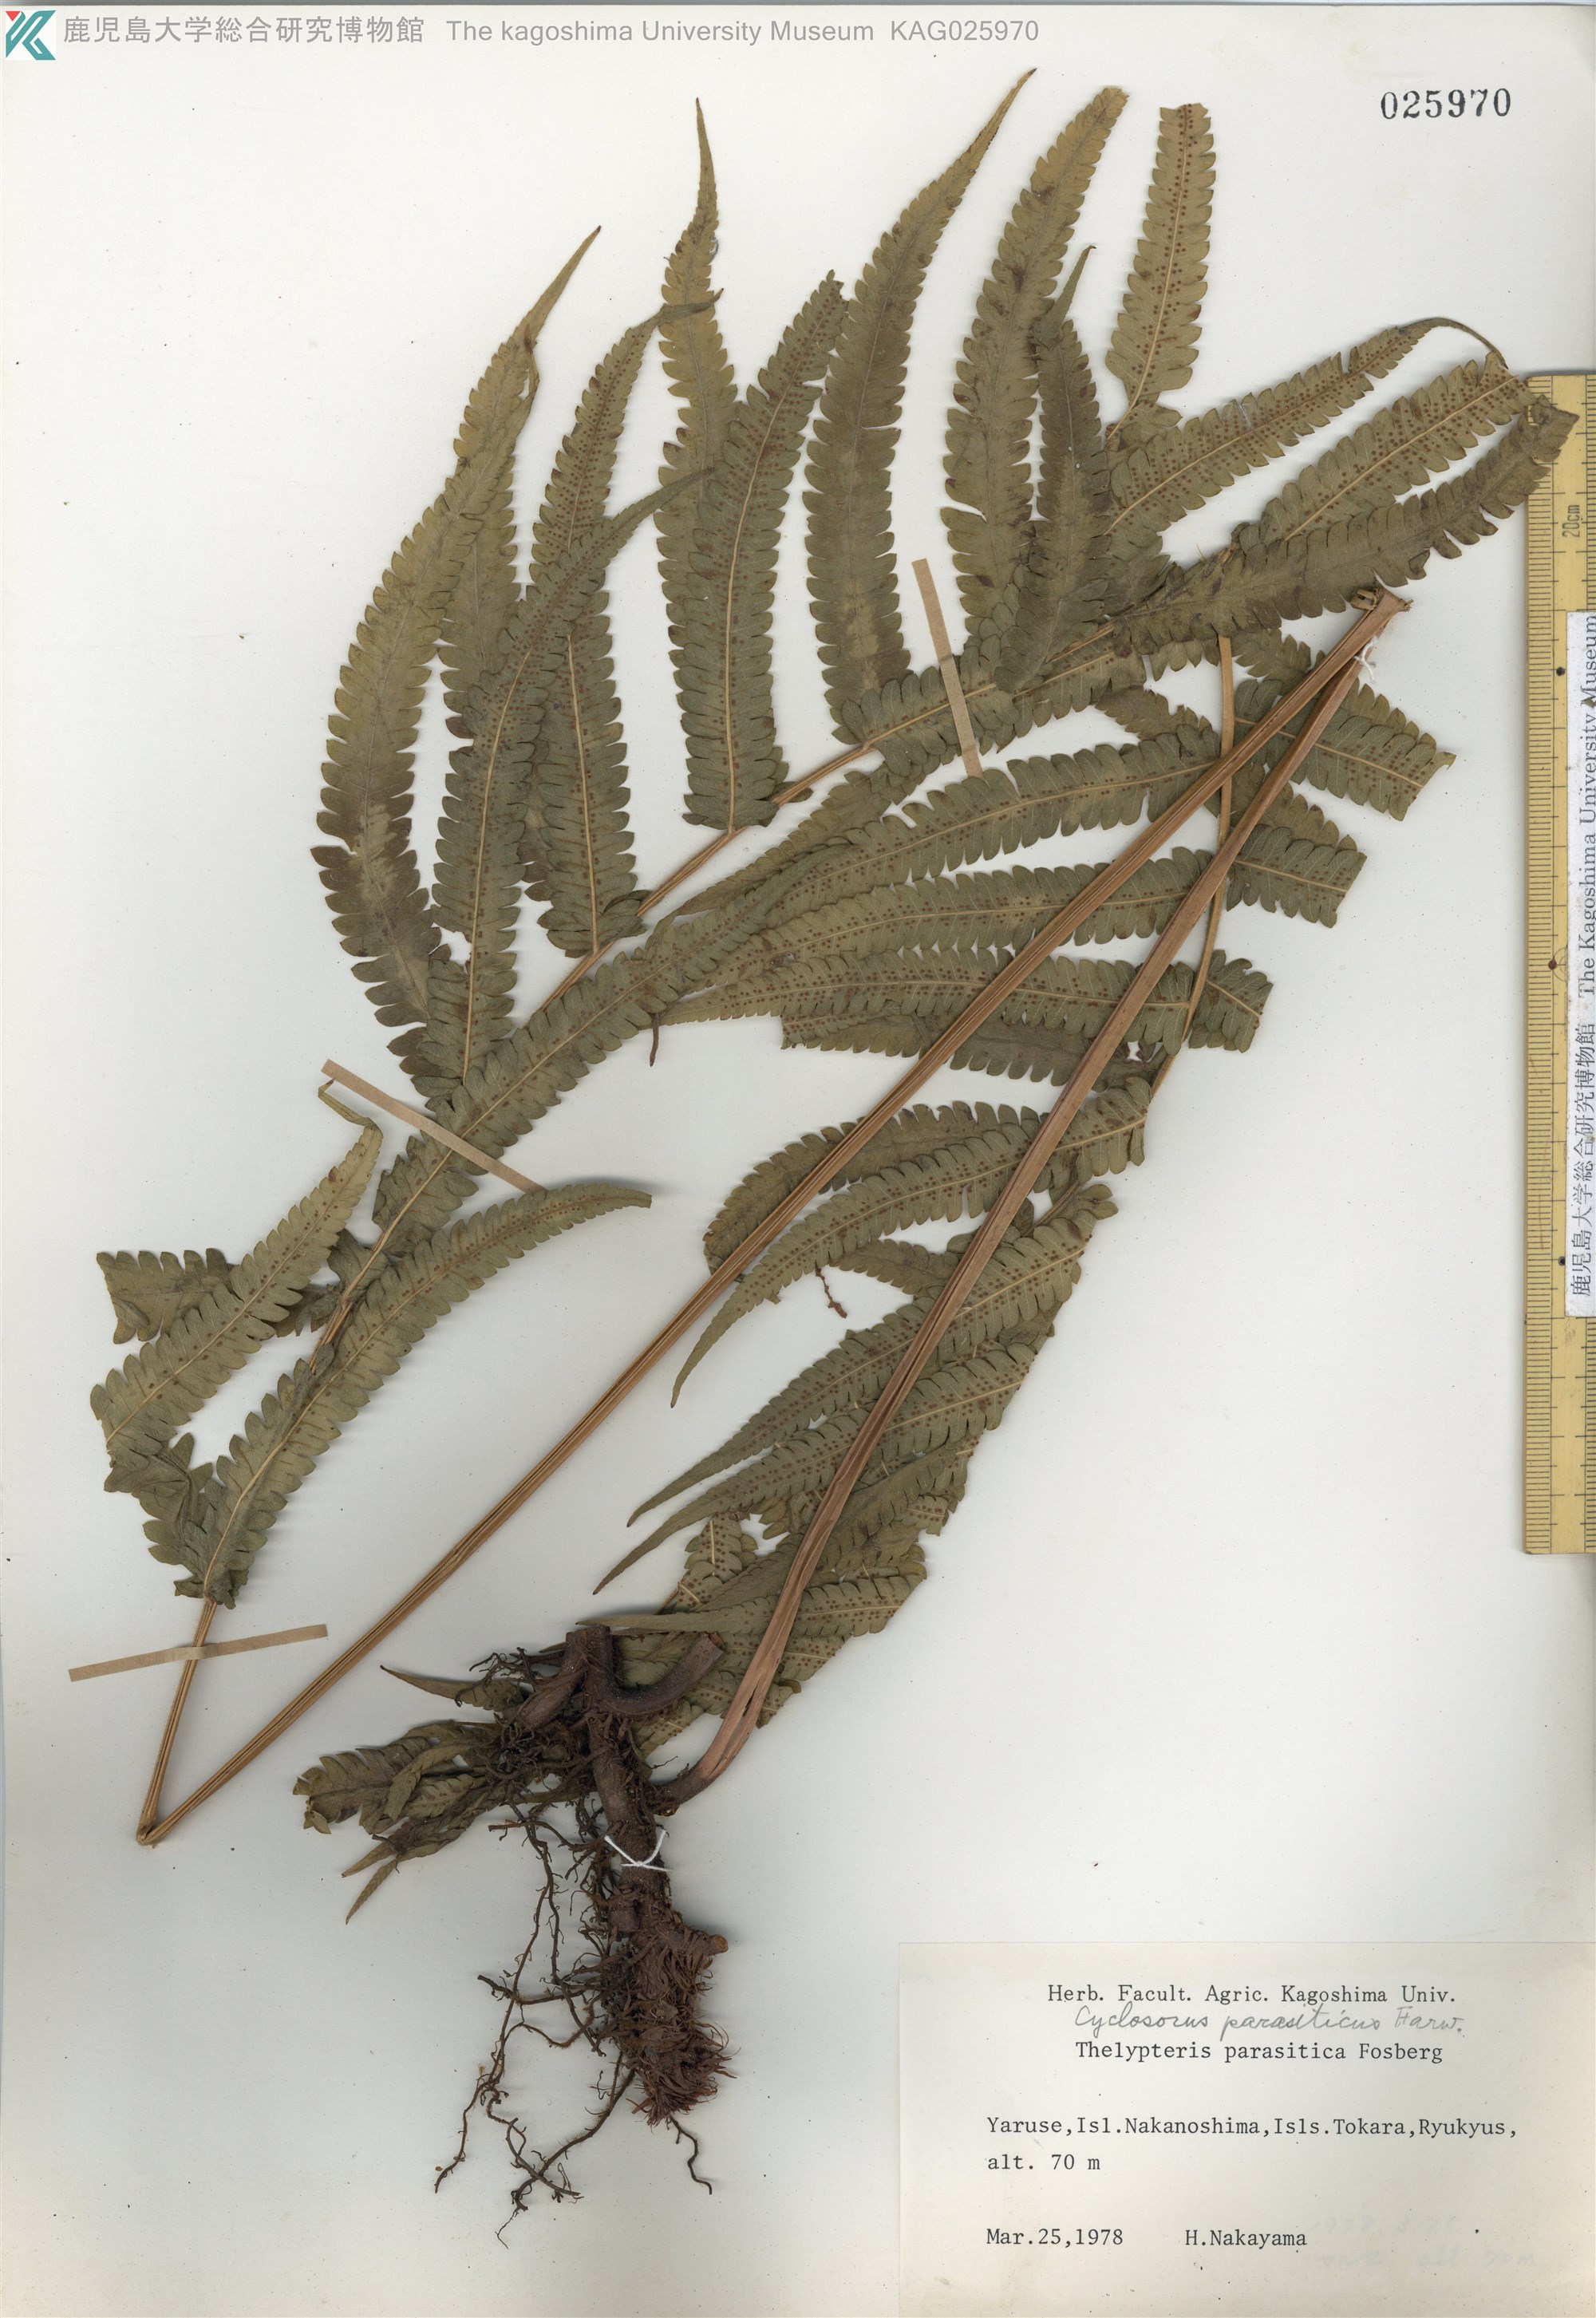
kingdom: Plantae
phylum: Tracheophyta
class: Polypodiopsida
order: Polypodiales
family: Thelypteridaceae
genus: Christella
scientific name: Christella parasitica
